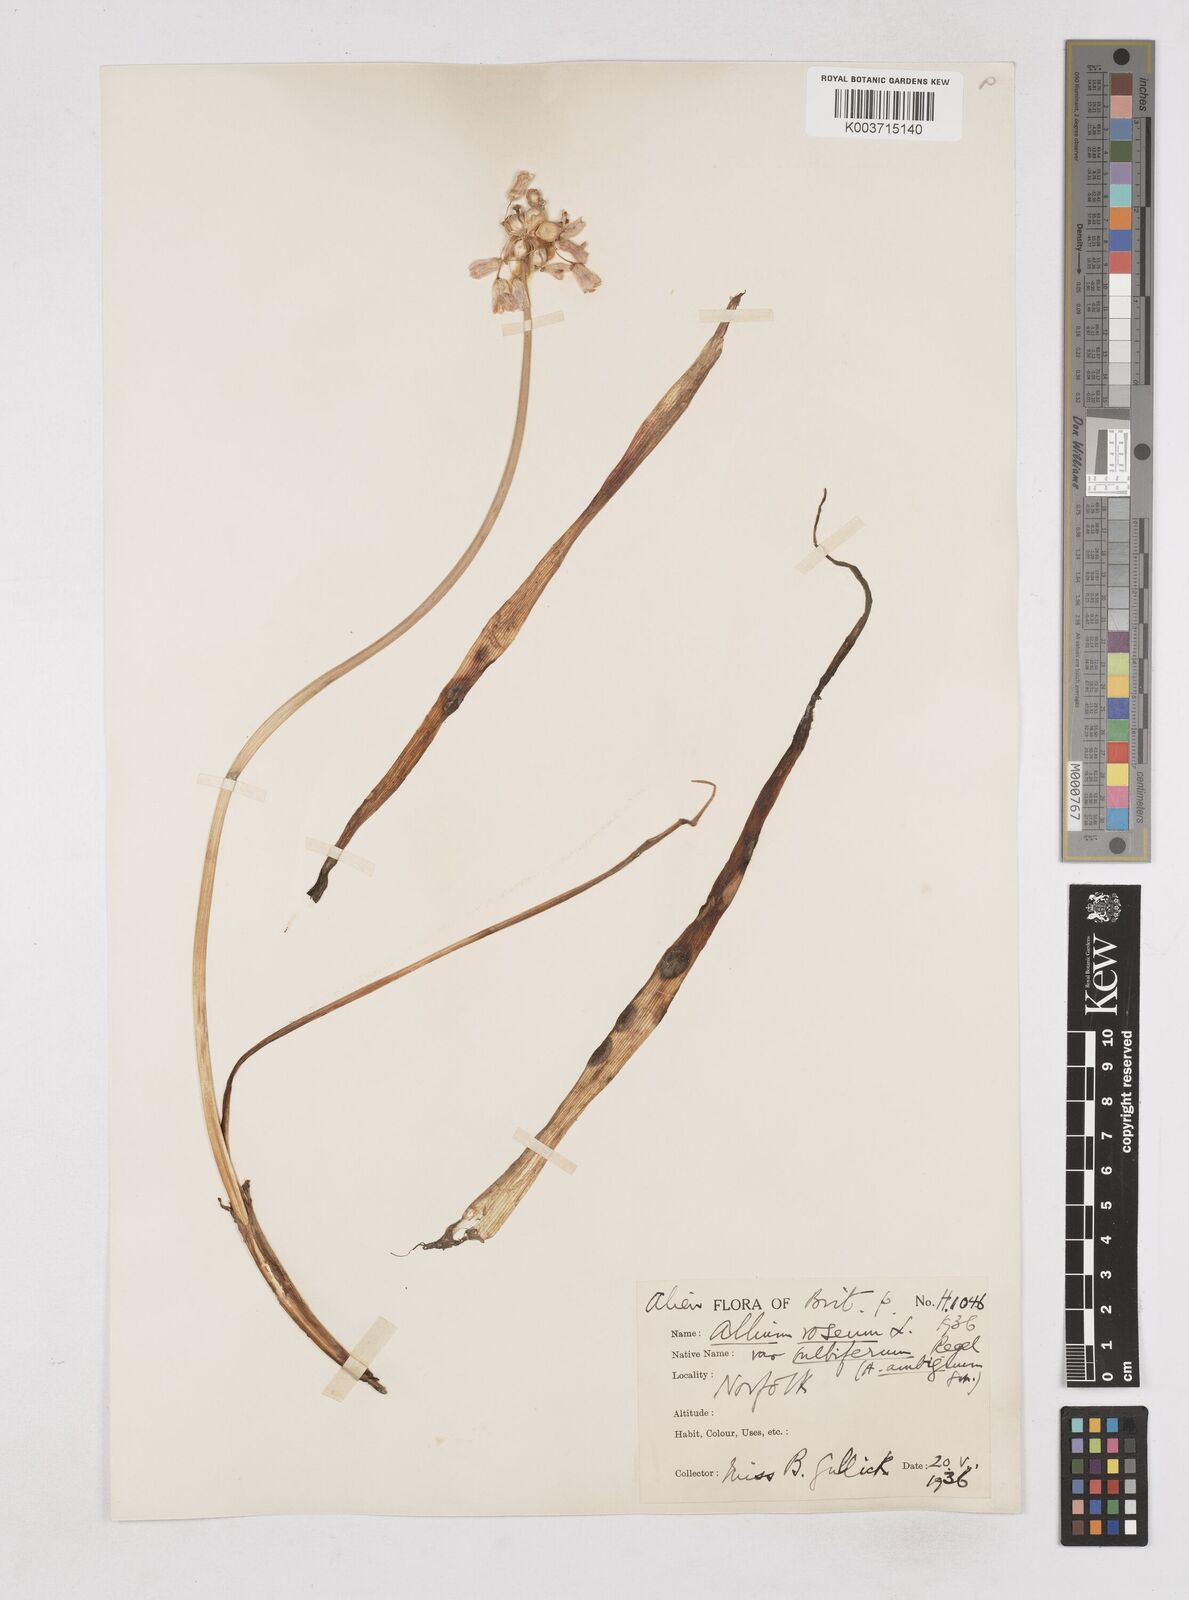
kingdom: Plantae
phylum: Tracheophyta
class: Liliopsida
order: Asparagales
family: Amaryllidaceae
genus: Allium
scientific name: Allium roseum
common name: Rosy garlic
